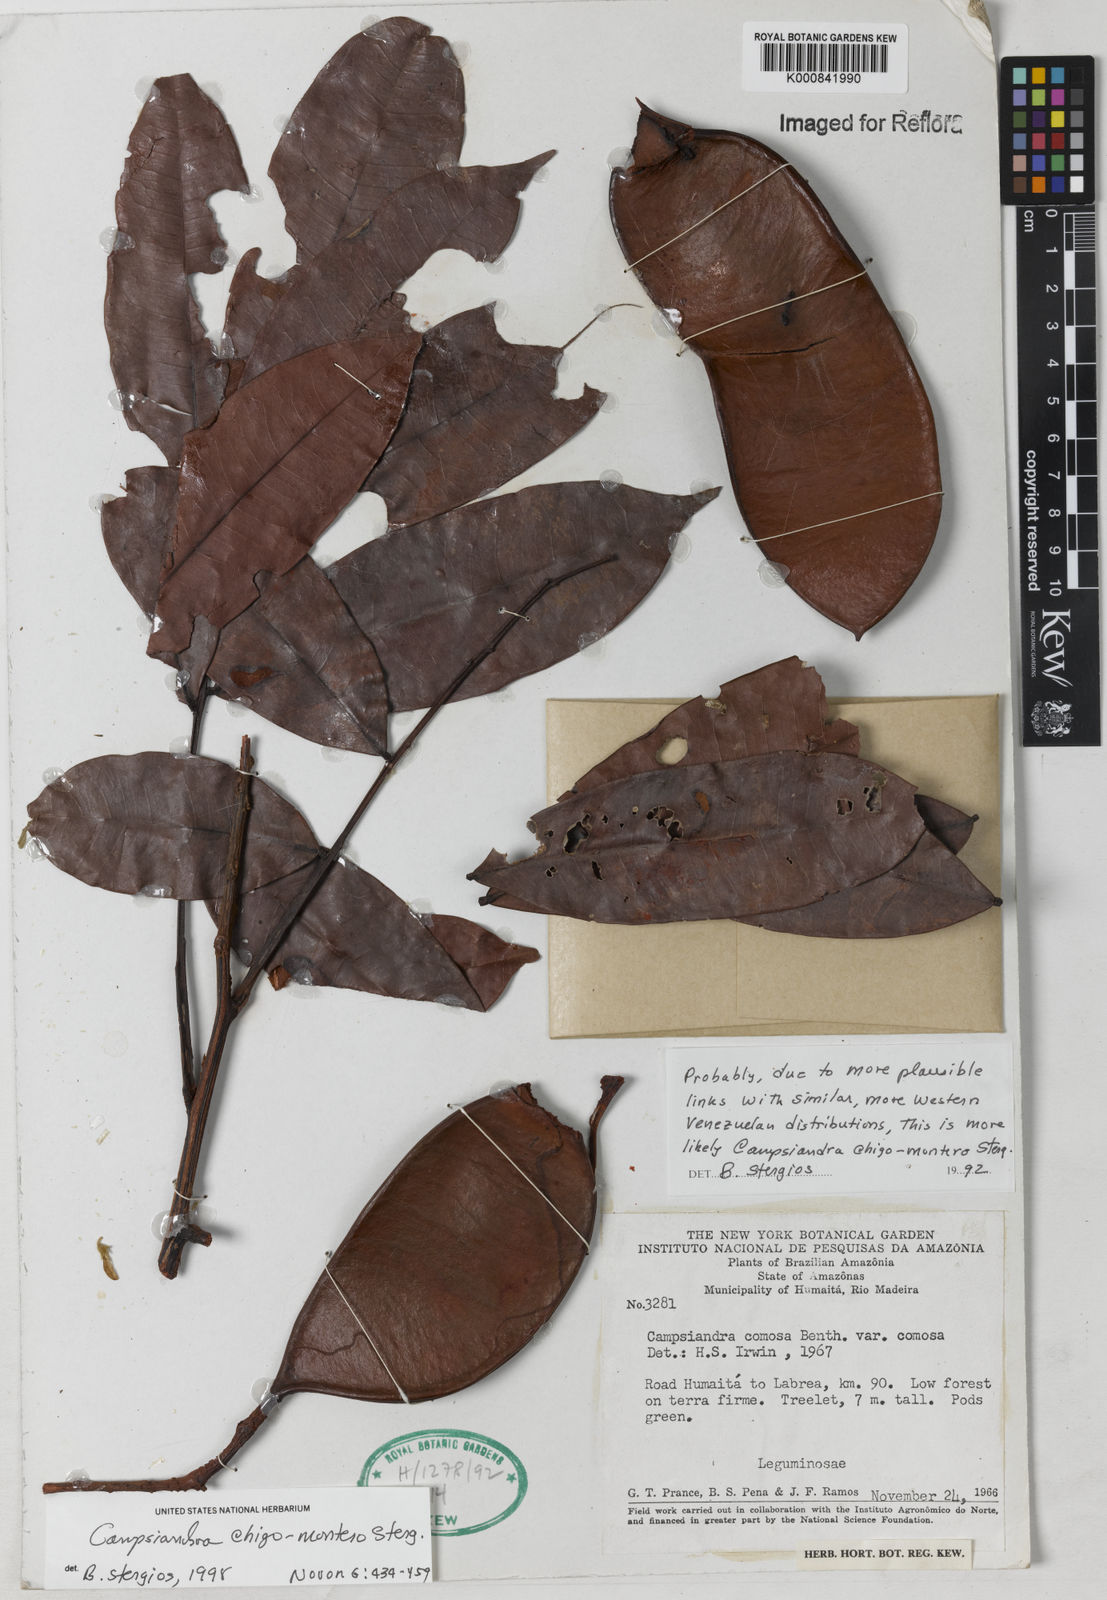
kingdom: Plantae
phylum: Tracheophyta
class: Magnoliopsida
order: Fabales
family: Fabaceae
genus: Campsiandra
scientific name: Campsiandra chigo-montero
